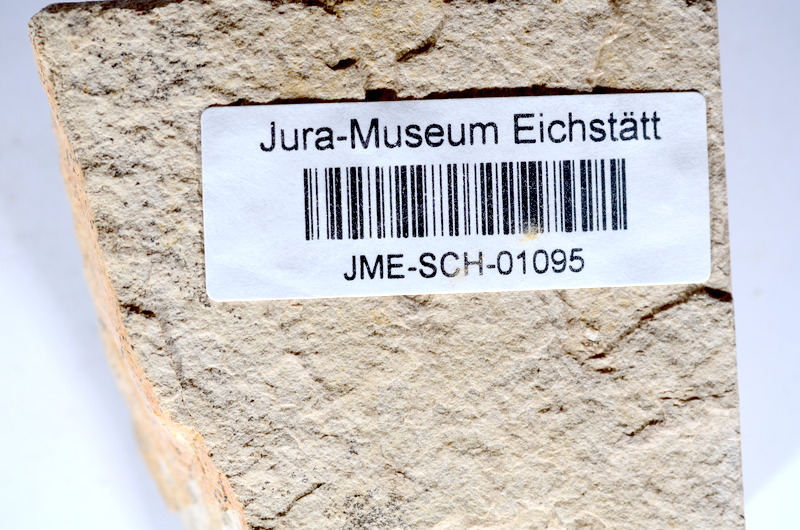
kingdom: Animalia
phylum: Chordata
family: Ascalaboidae
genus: Tharsis
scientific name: Tharsis dubius
